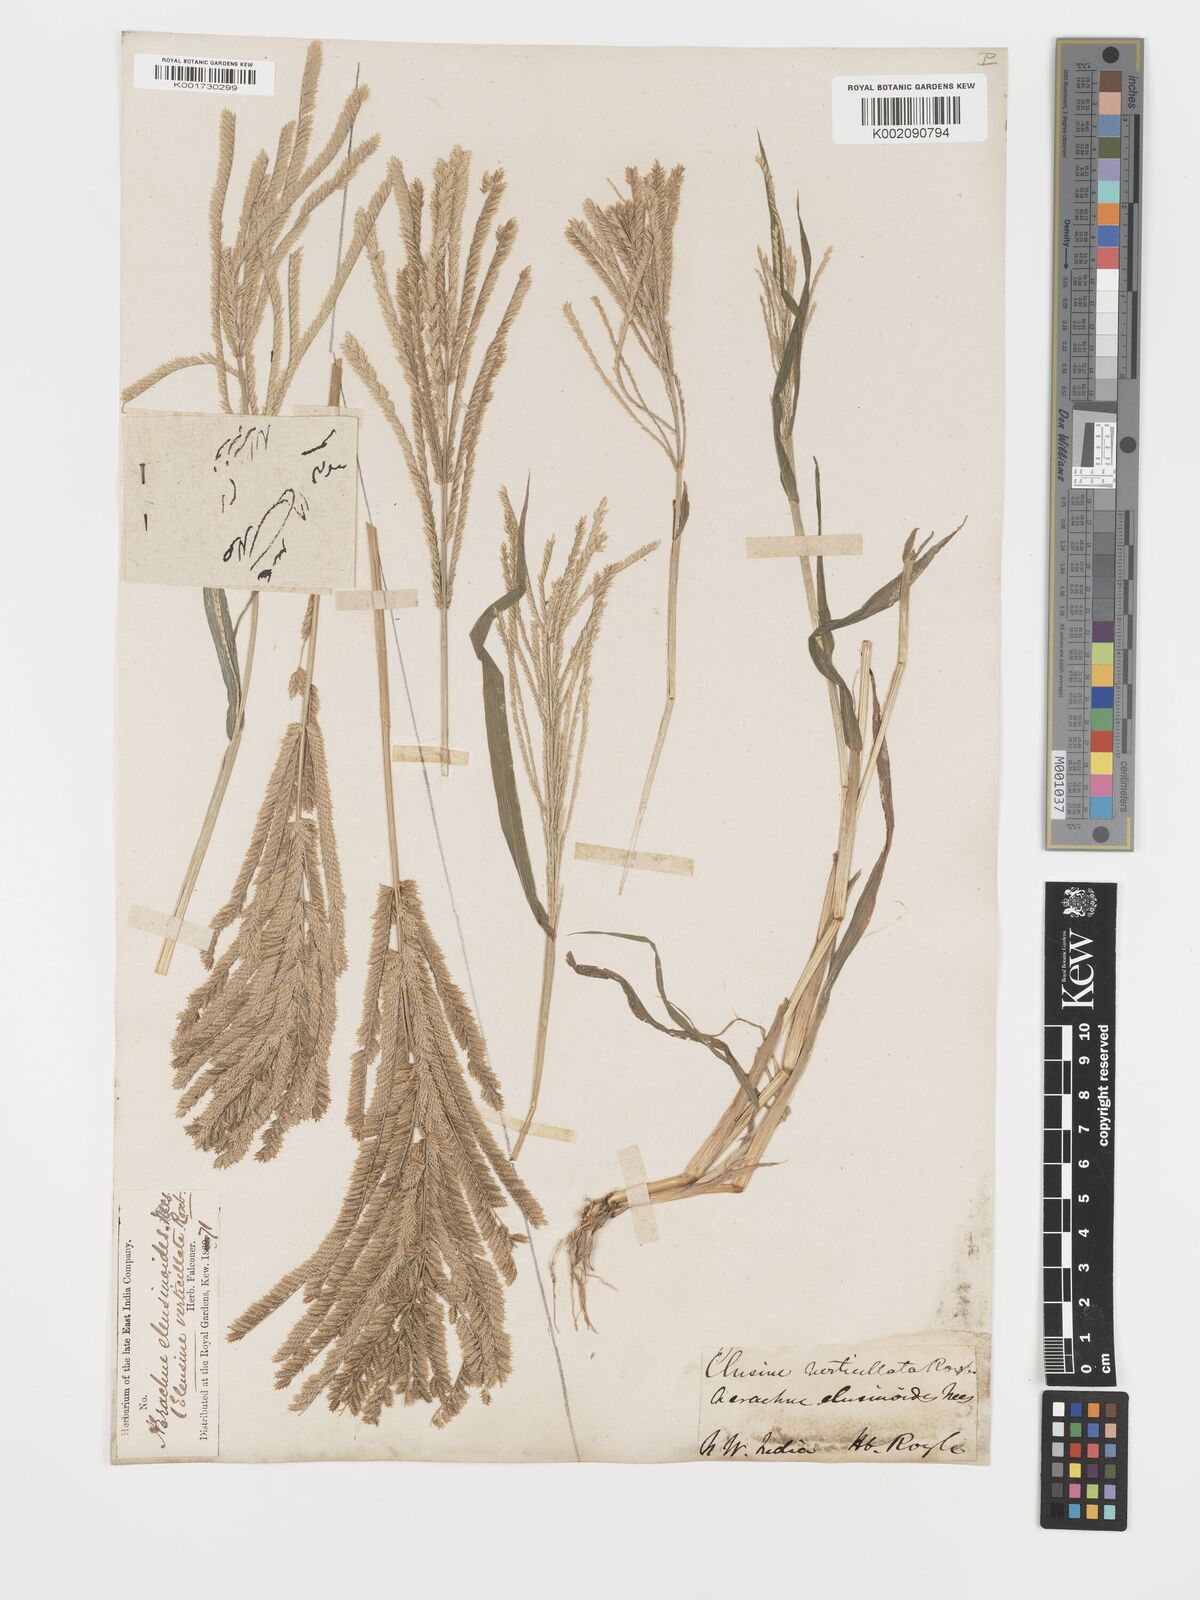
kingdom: Plantae
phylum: Tracheophyta
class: Liliopsida
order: Poales
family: Poaceae
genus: Acrachne
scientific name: Acrachne racemosa
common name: Goosegrass
